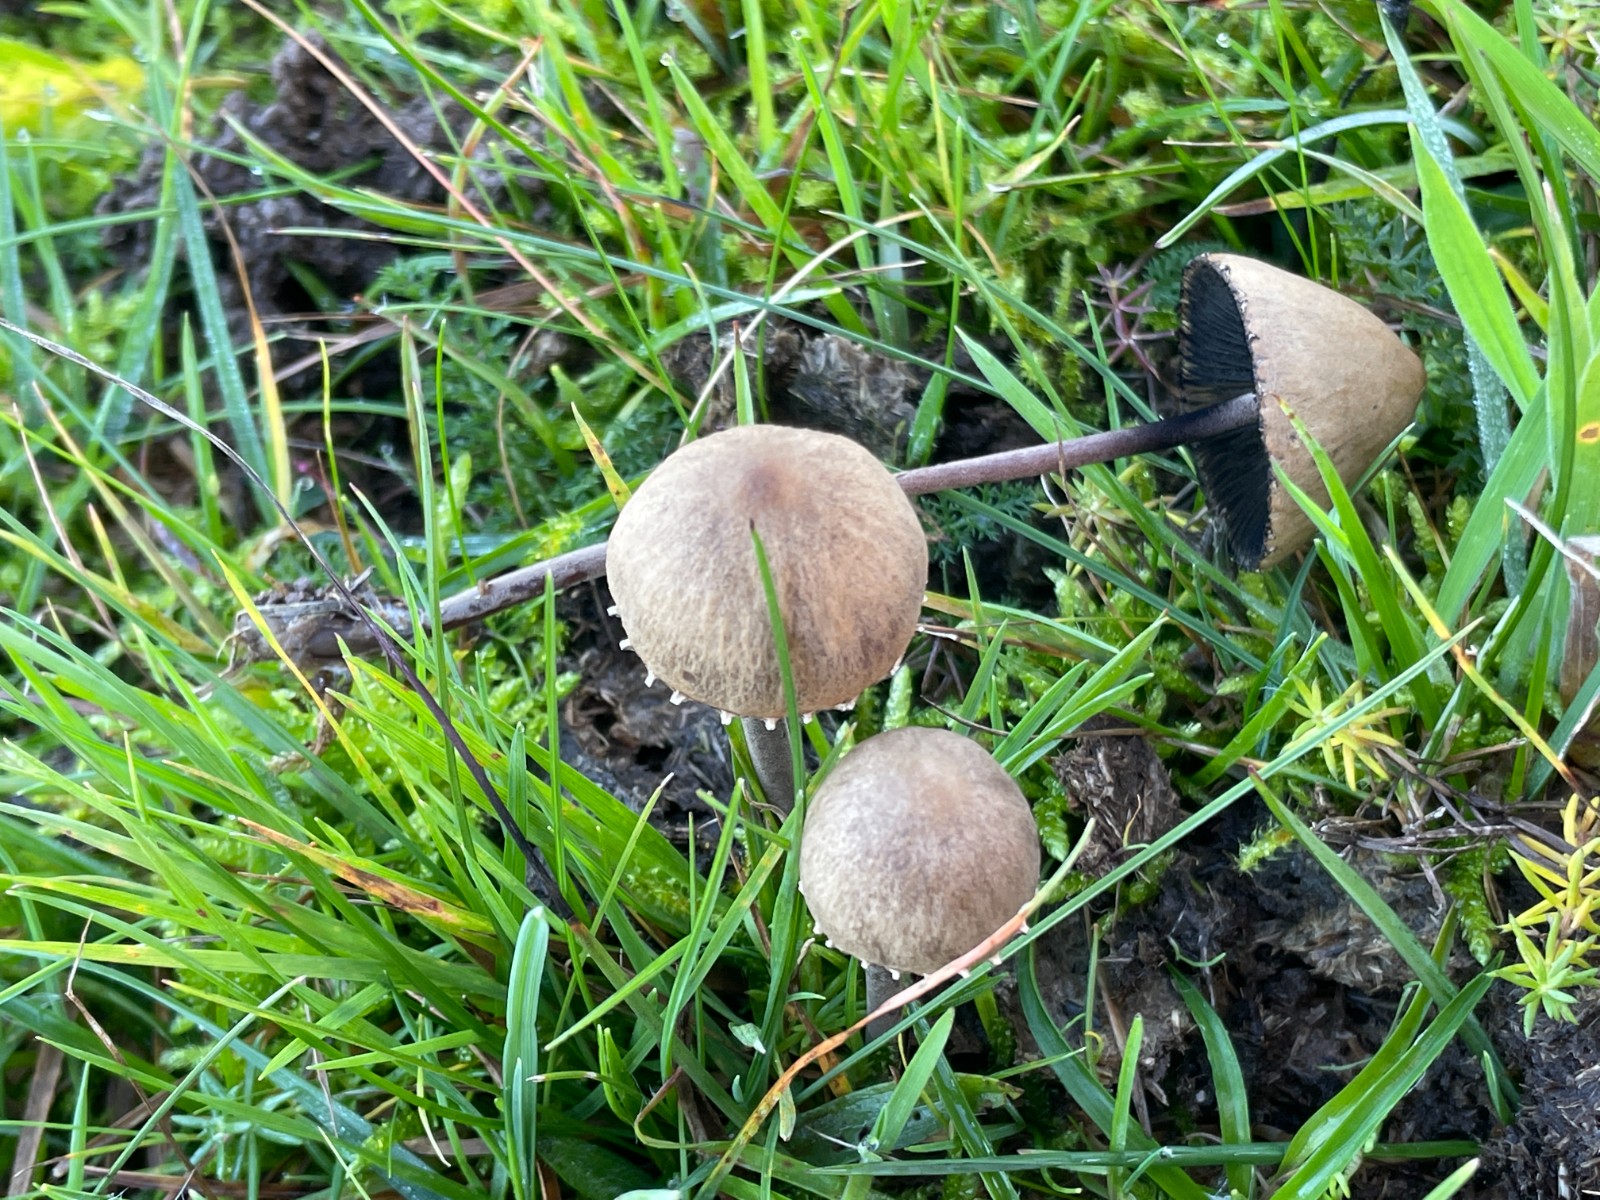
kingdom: Fungi
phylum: Basidiomycota
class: Agaricomycetes
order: Agaricales
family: Bolbitiaceae
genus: Panaeolus
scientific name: Panaeolus papilionaceus
